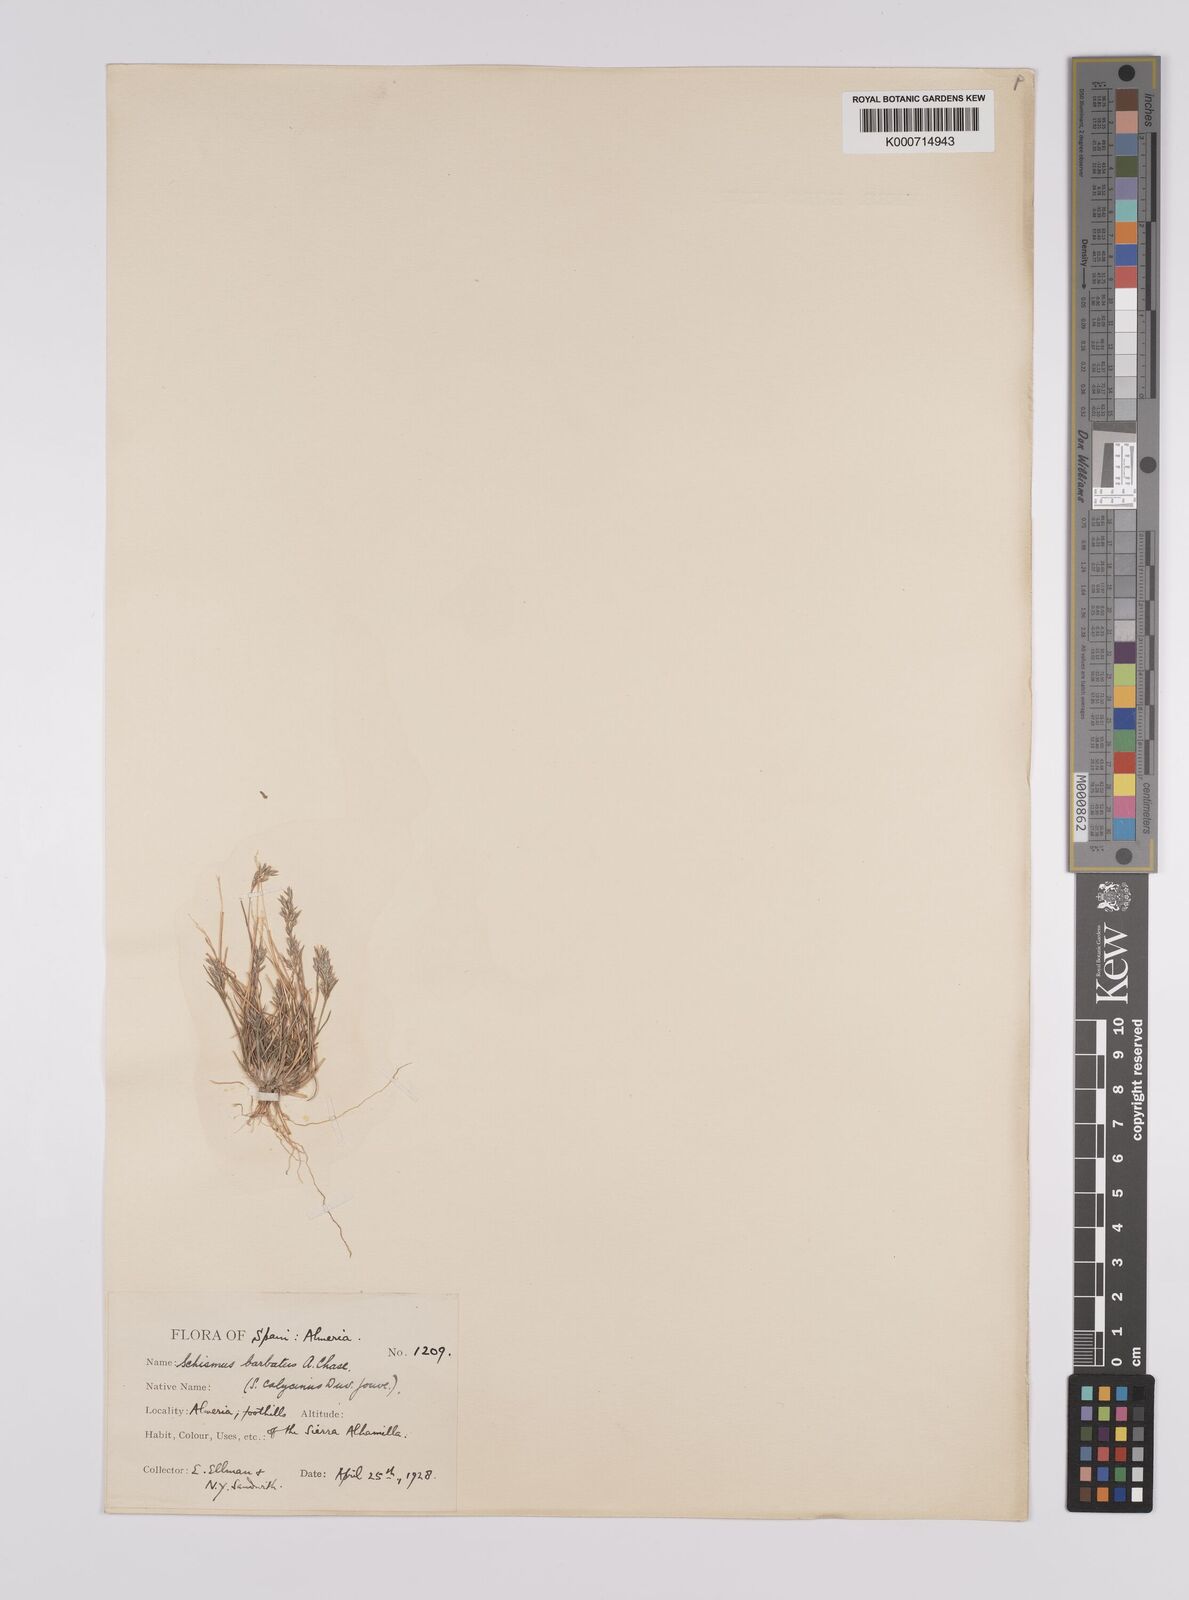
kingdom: Plantae
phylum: Tracheophyta
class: Liliopsida
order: Poales
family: Poaceae
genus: Schismus
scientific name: Schismus barbatus
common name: Kelch-grass
